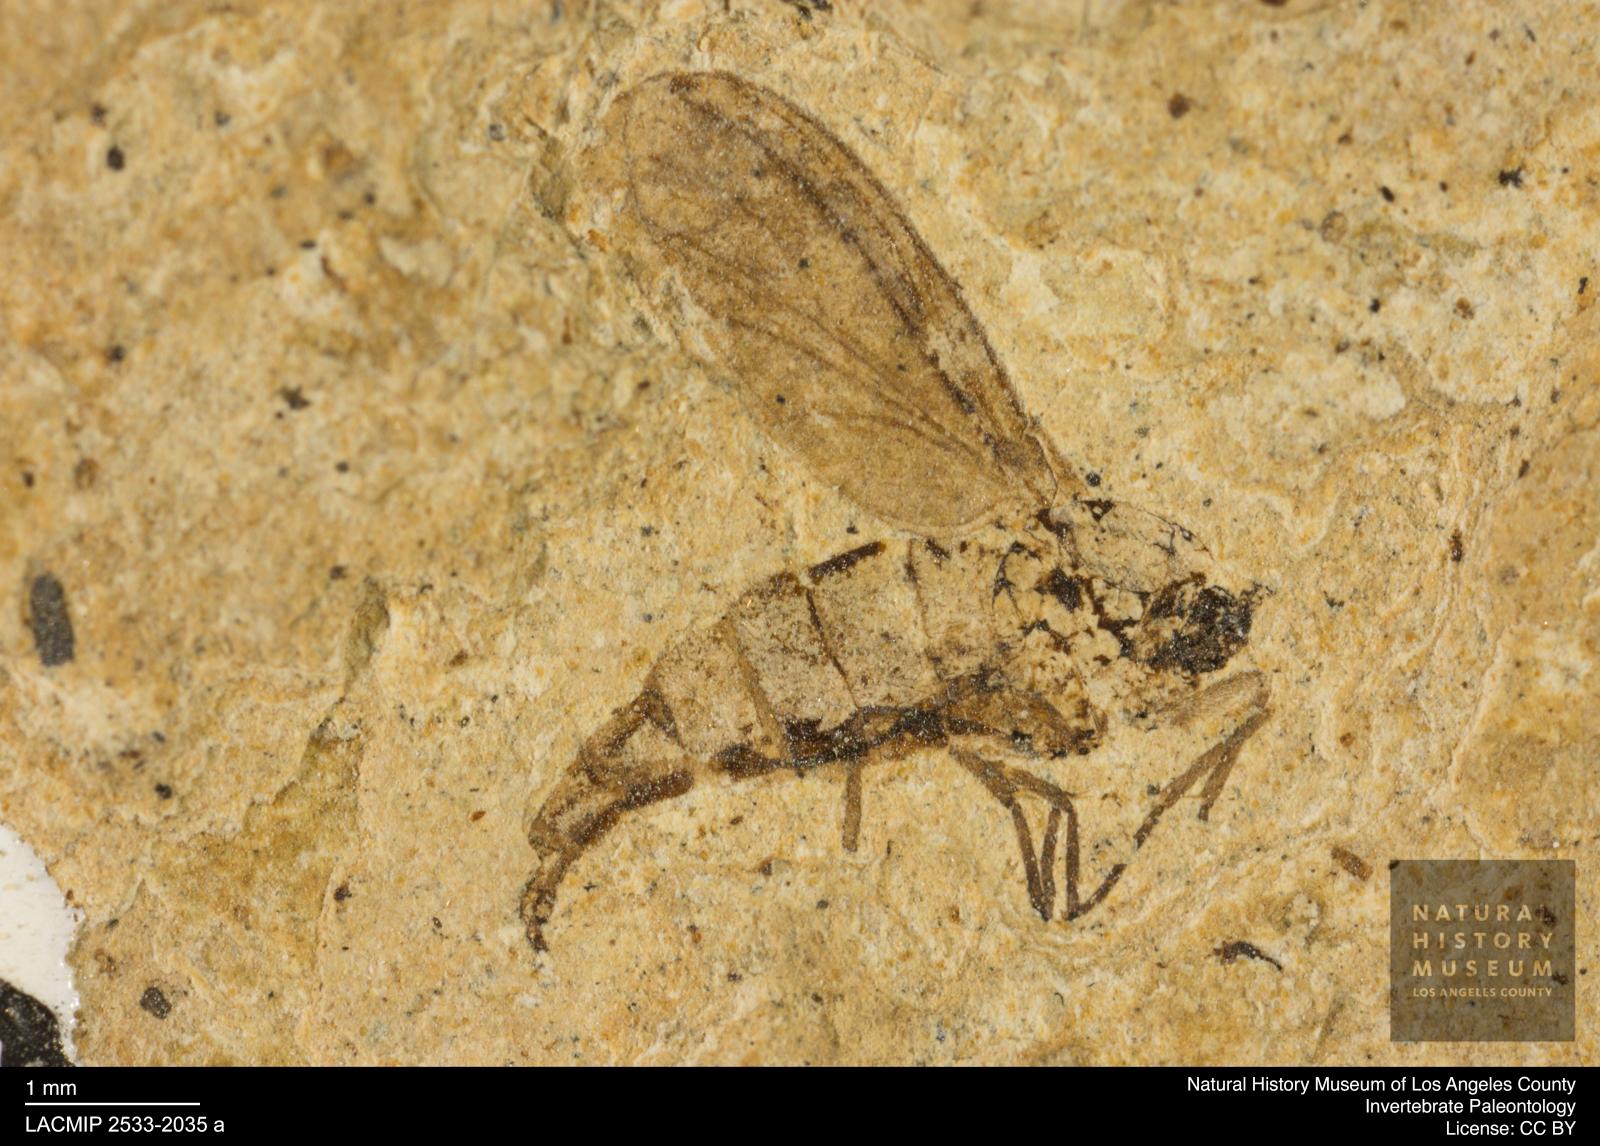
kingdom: Animalia
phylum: Arthropoda
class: Insecta
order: Diptera
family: Sciaridae
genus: Sciara
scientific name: Sciara heydeni
